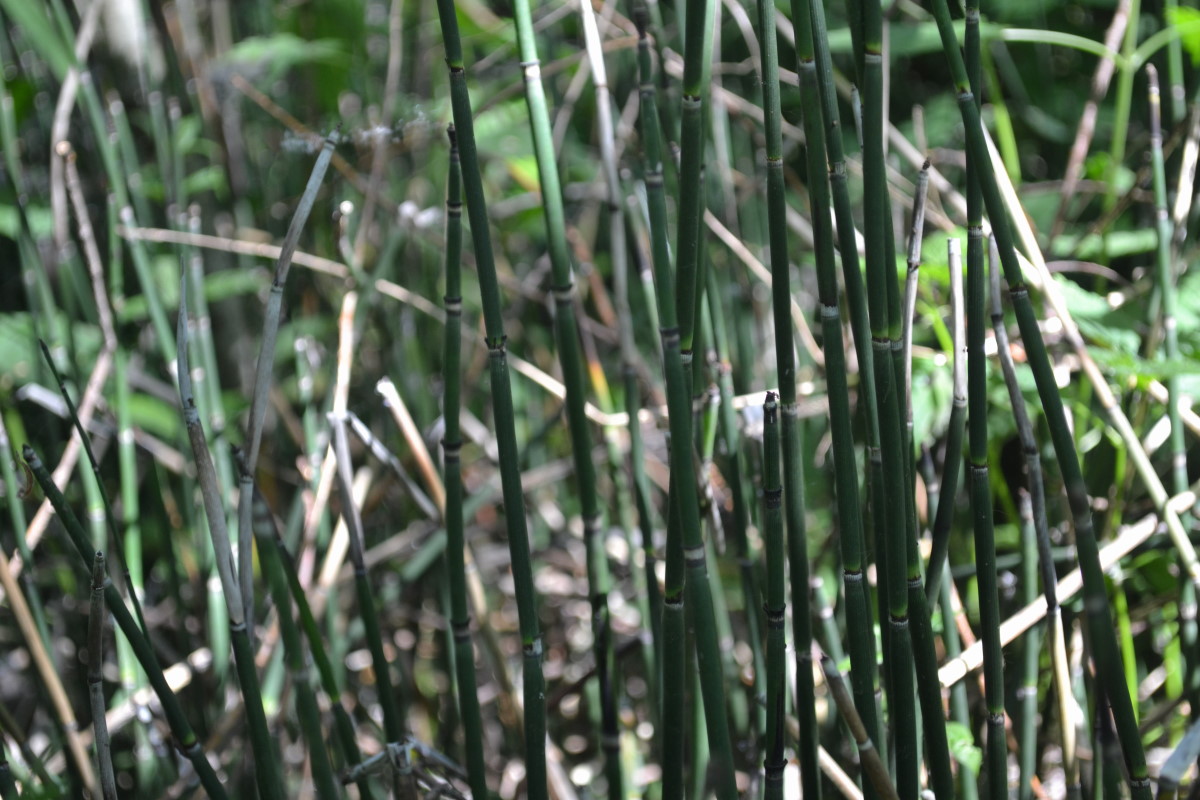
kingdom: Plantae
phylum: Tracheophyta
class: Polypodiopsida
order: Equisetales
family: Equisetaceae
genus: Equisetum
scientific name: Equisetum hyemale
